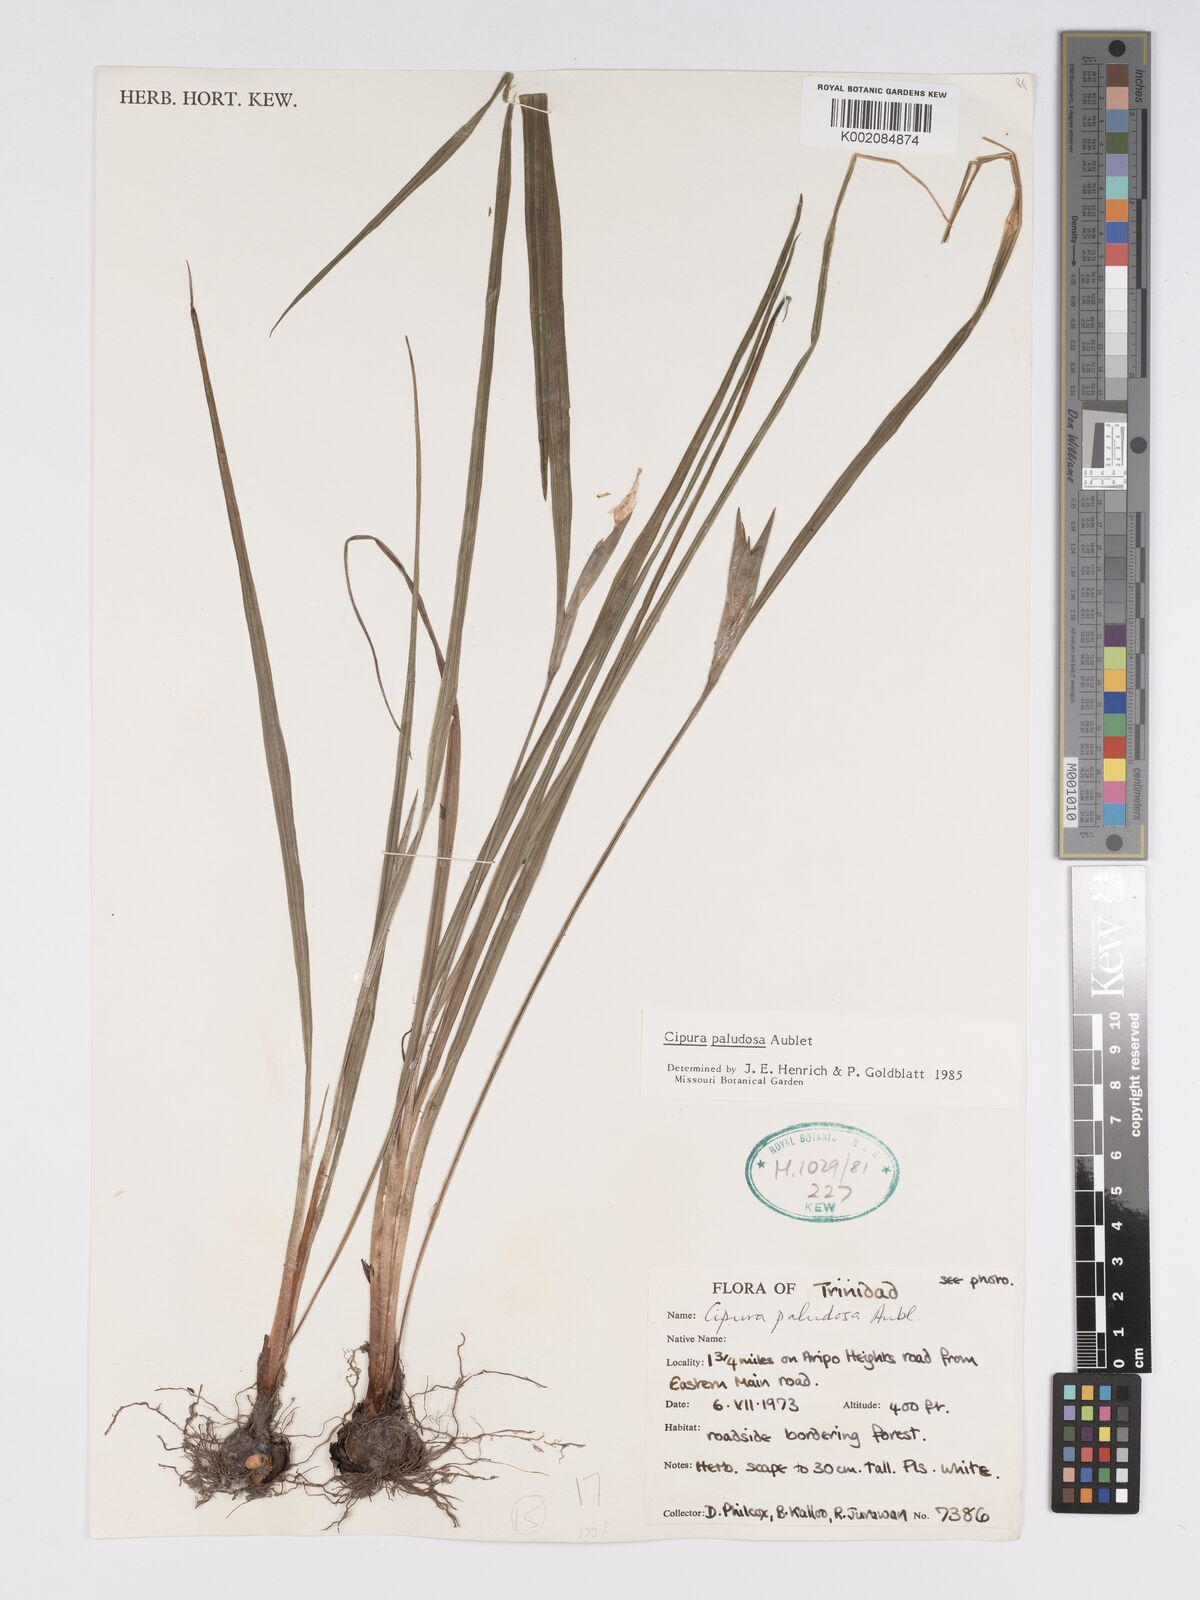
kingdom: Plantae
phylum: Tracheophyta
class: Liliopsida
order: Asparagales
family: Iridaceae
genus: Cipura
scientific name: Cipura paludosa
